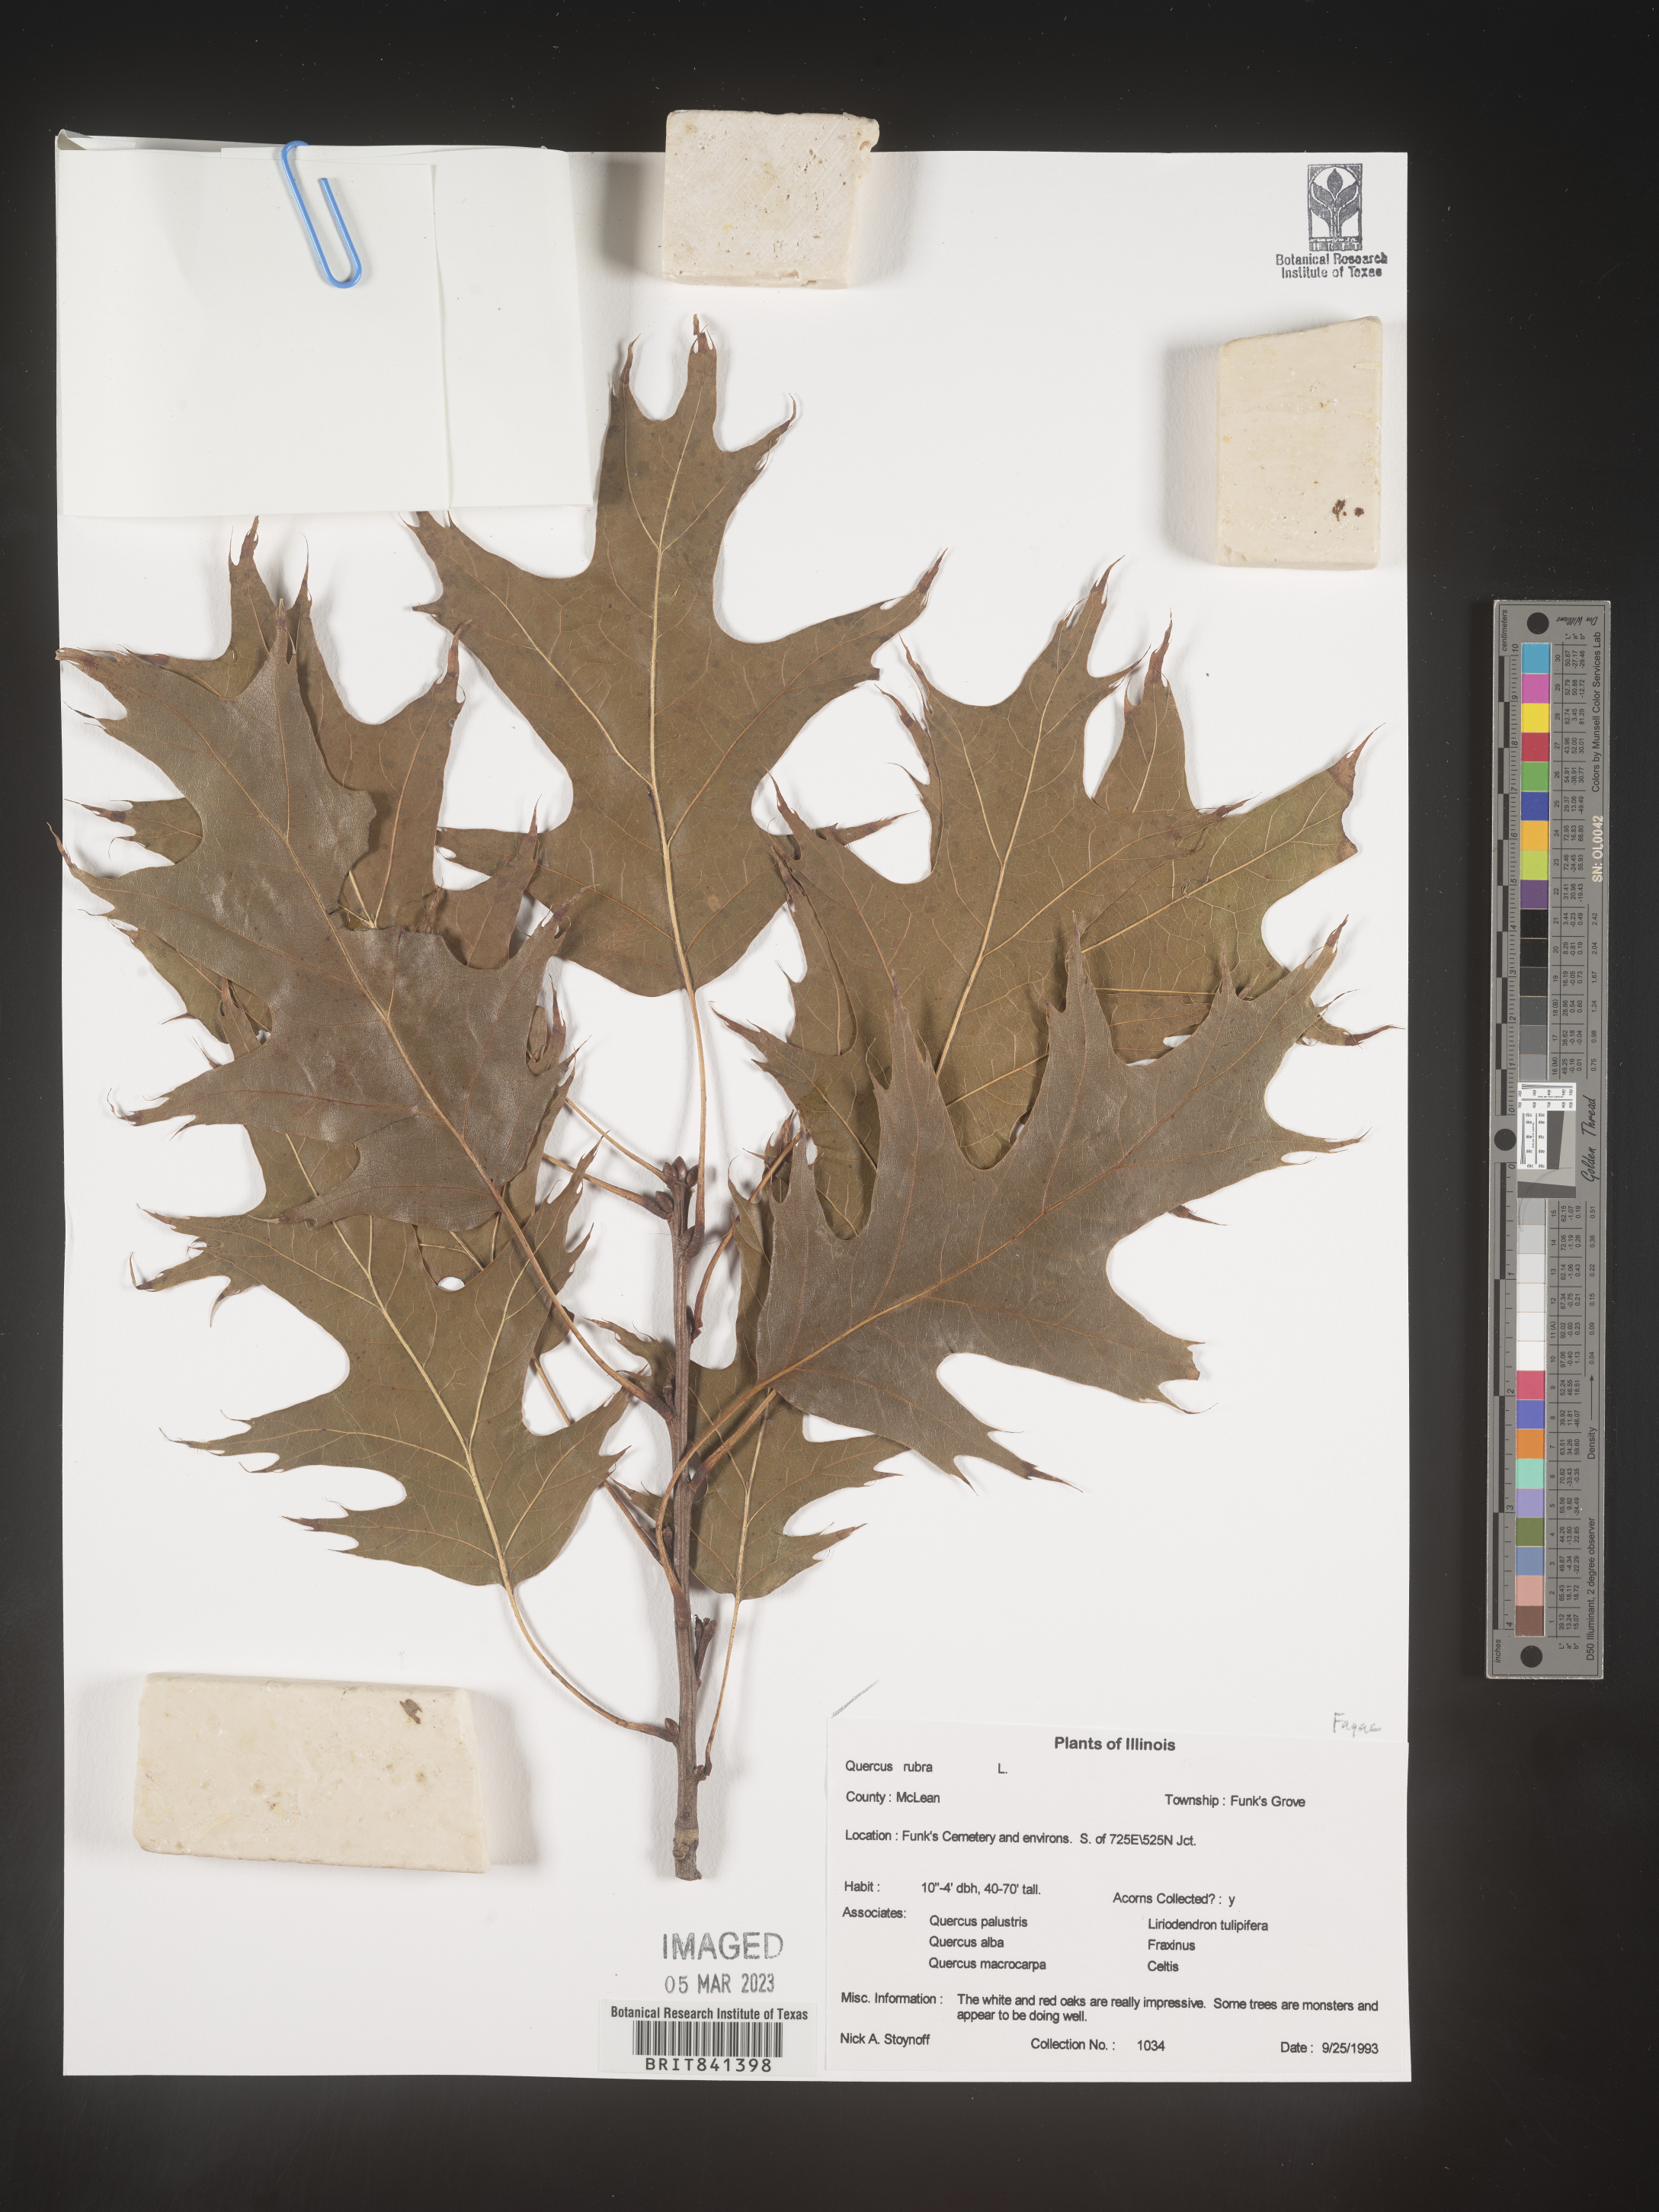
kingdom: Plantae
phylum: Tracheophyta
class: Magnoliopsida
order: Fagales
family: Fagaceae
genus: Quercus
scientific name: Quercus rubra
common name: Red oak
